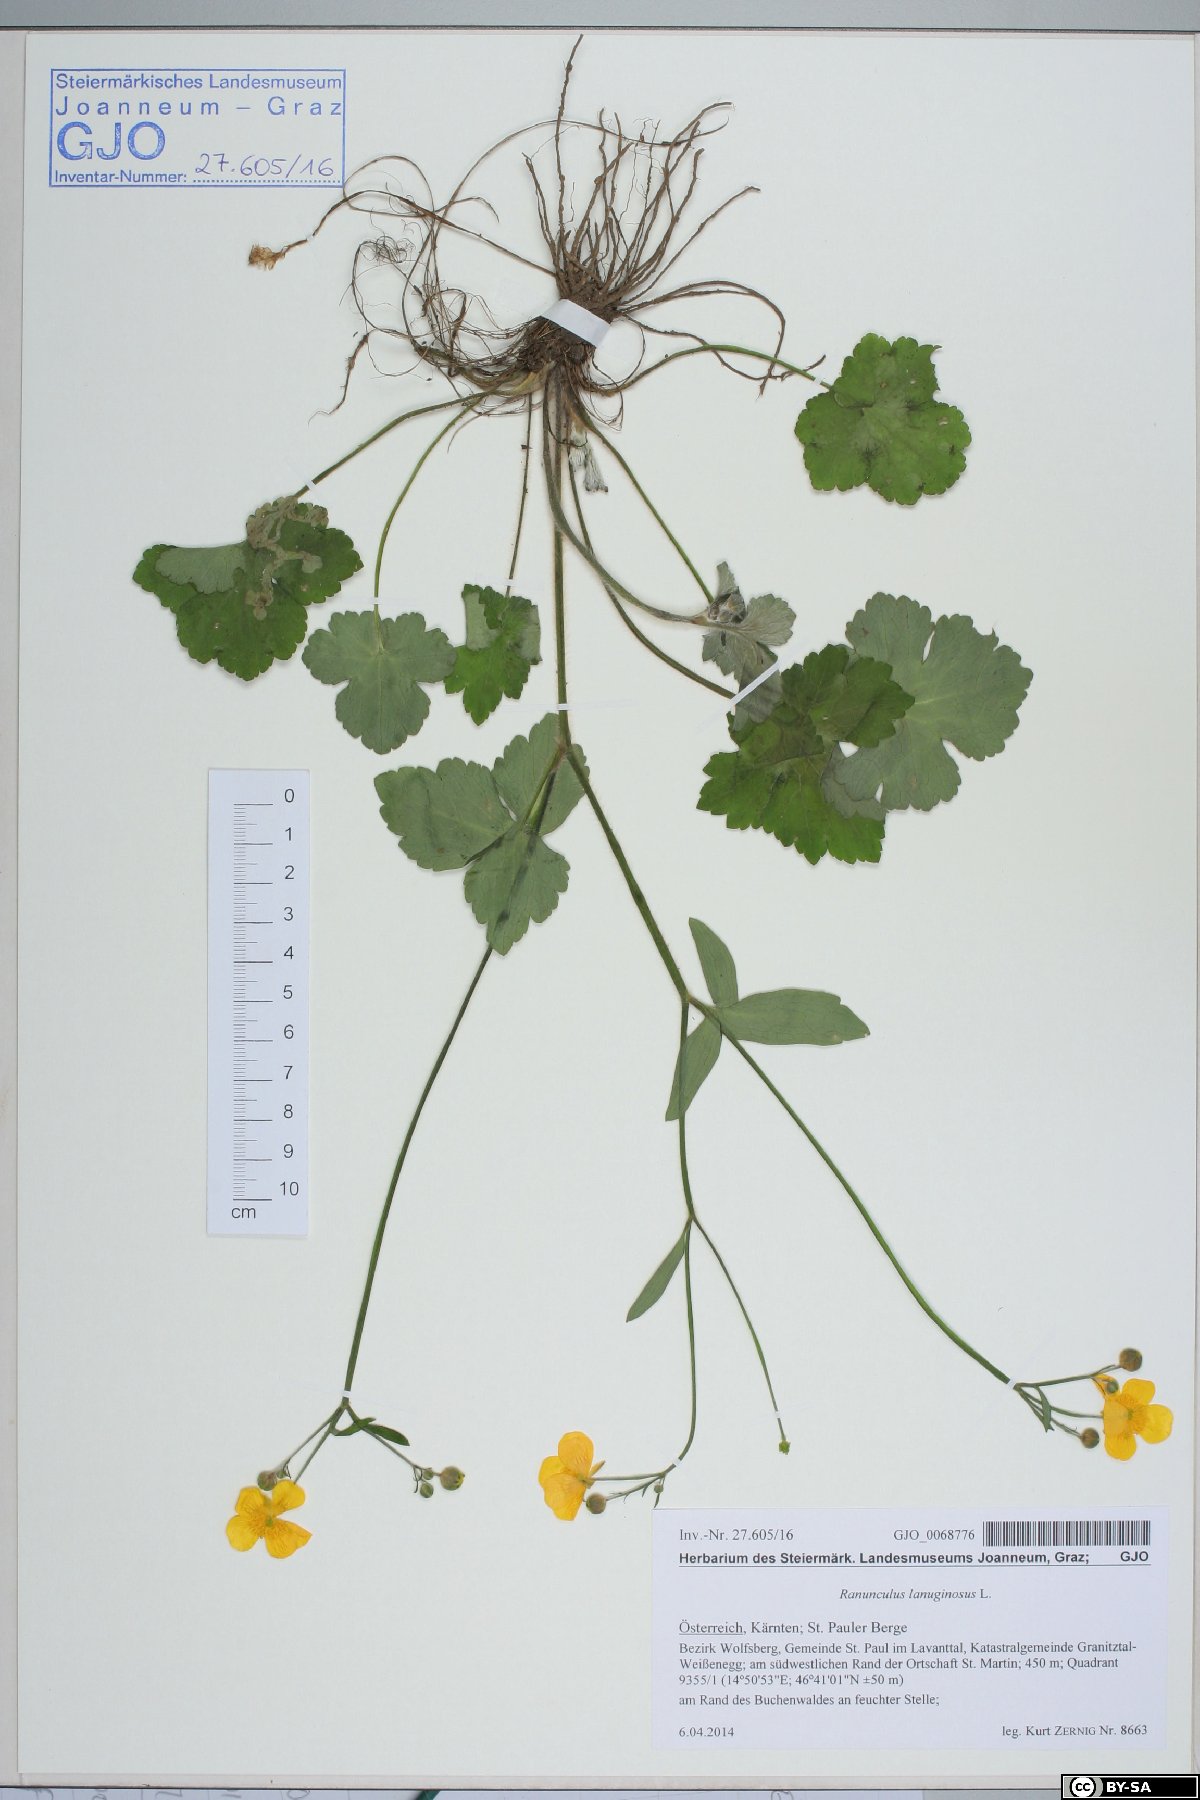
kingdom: Plantae
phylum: Tracheophyta
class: Magnoliopsida
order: Ranunculales
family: Ranunculaceae
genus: Ranunculus
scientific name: Ranunculus lanuginosus
